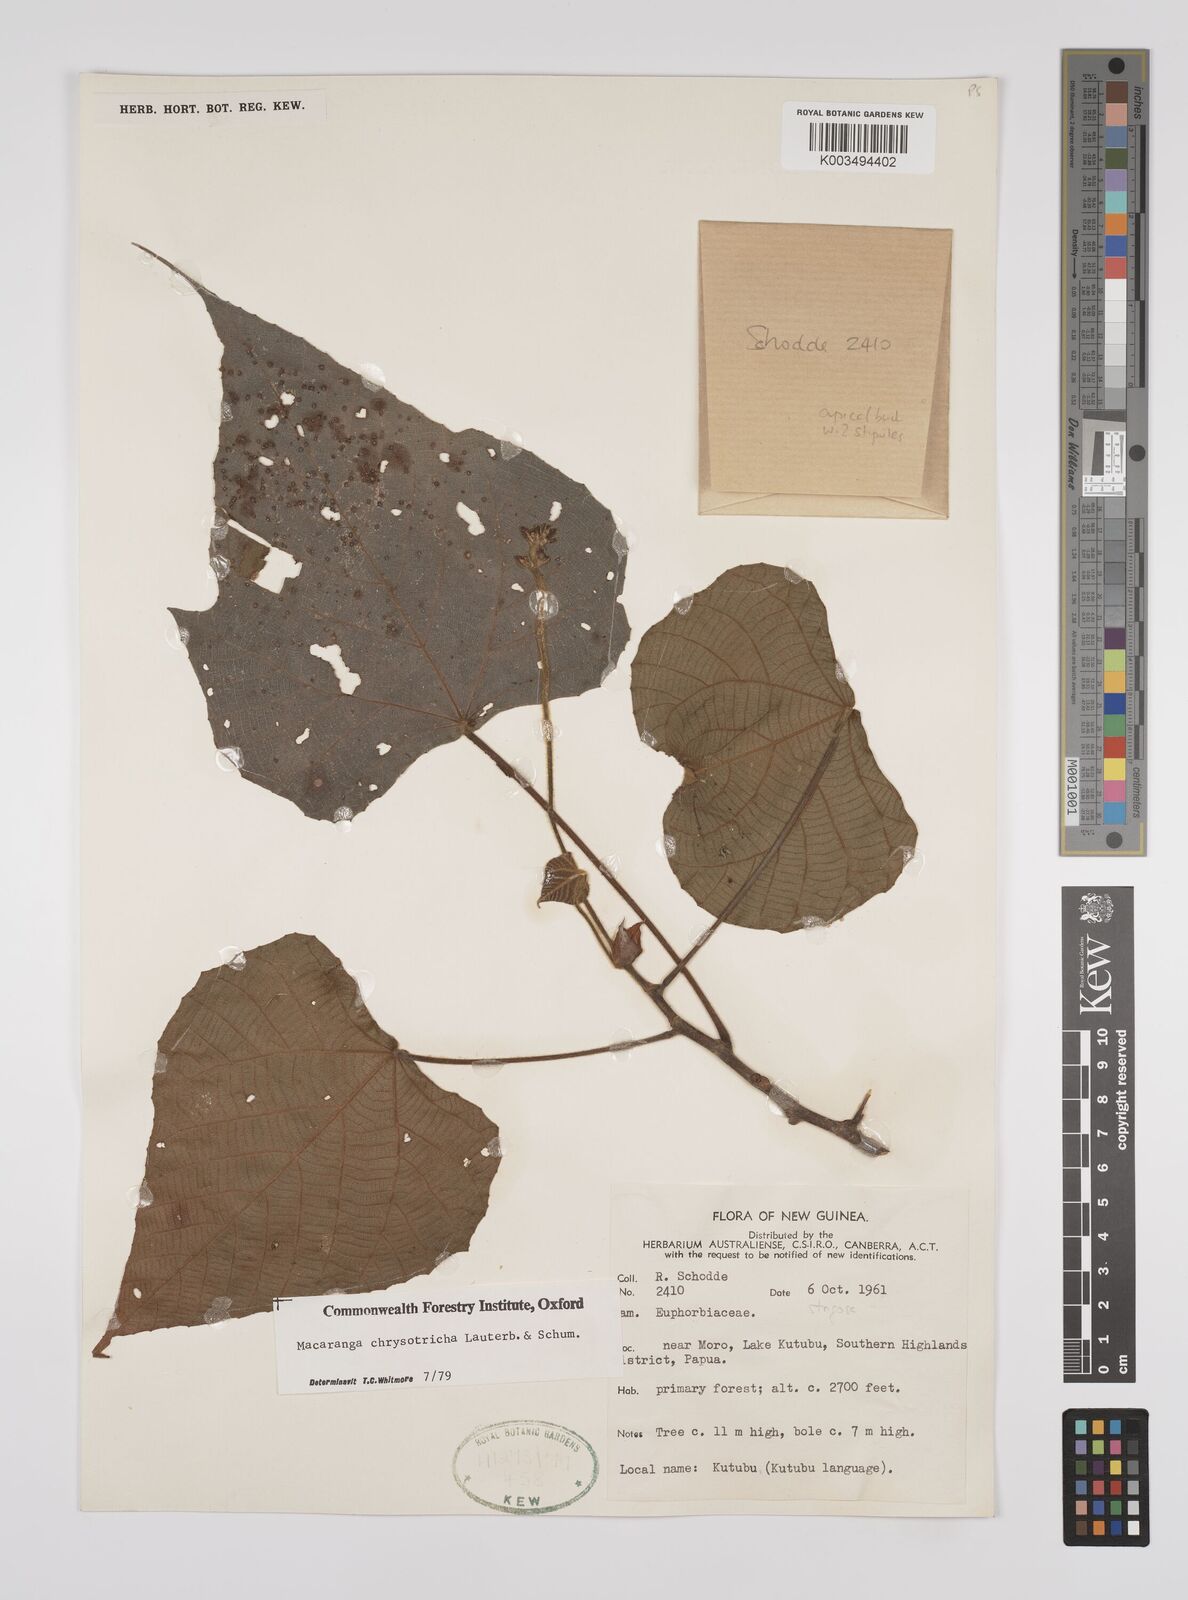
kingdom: Plantae
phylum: Tracheophyta
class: Magnoliopsida
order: Malpighiales
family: Euphorbiaceae
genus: Macaranga
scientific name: Macaranga chrysotricha
